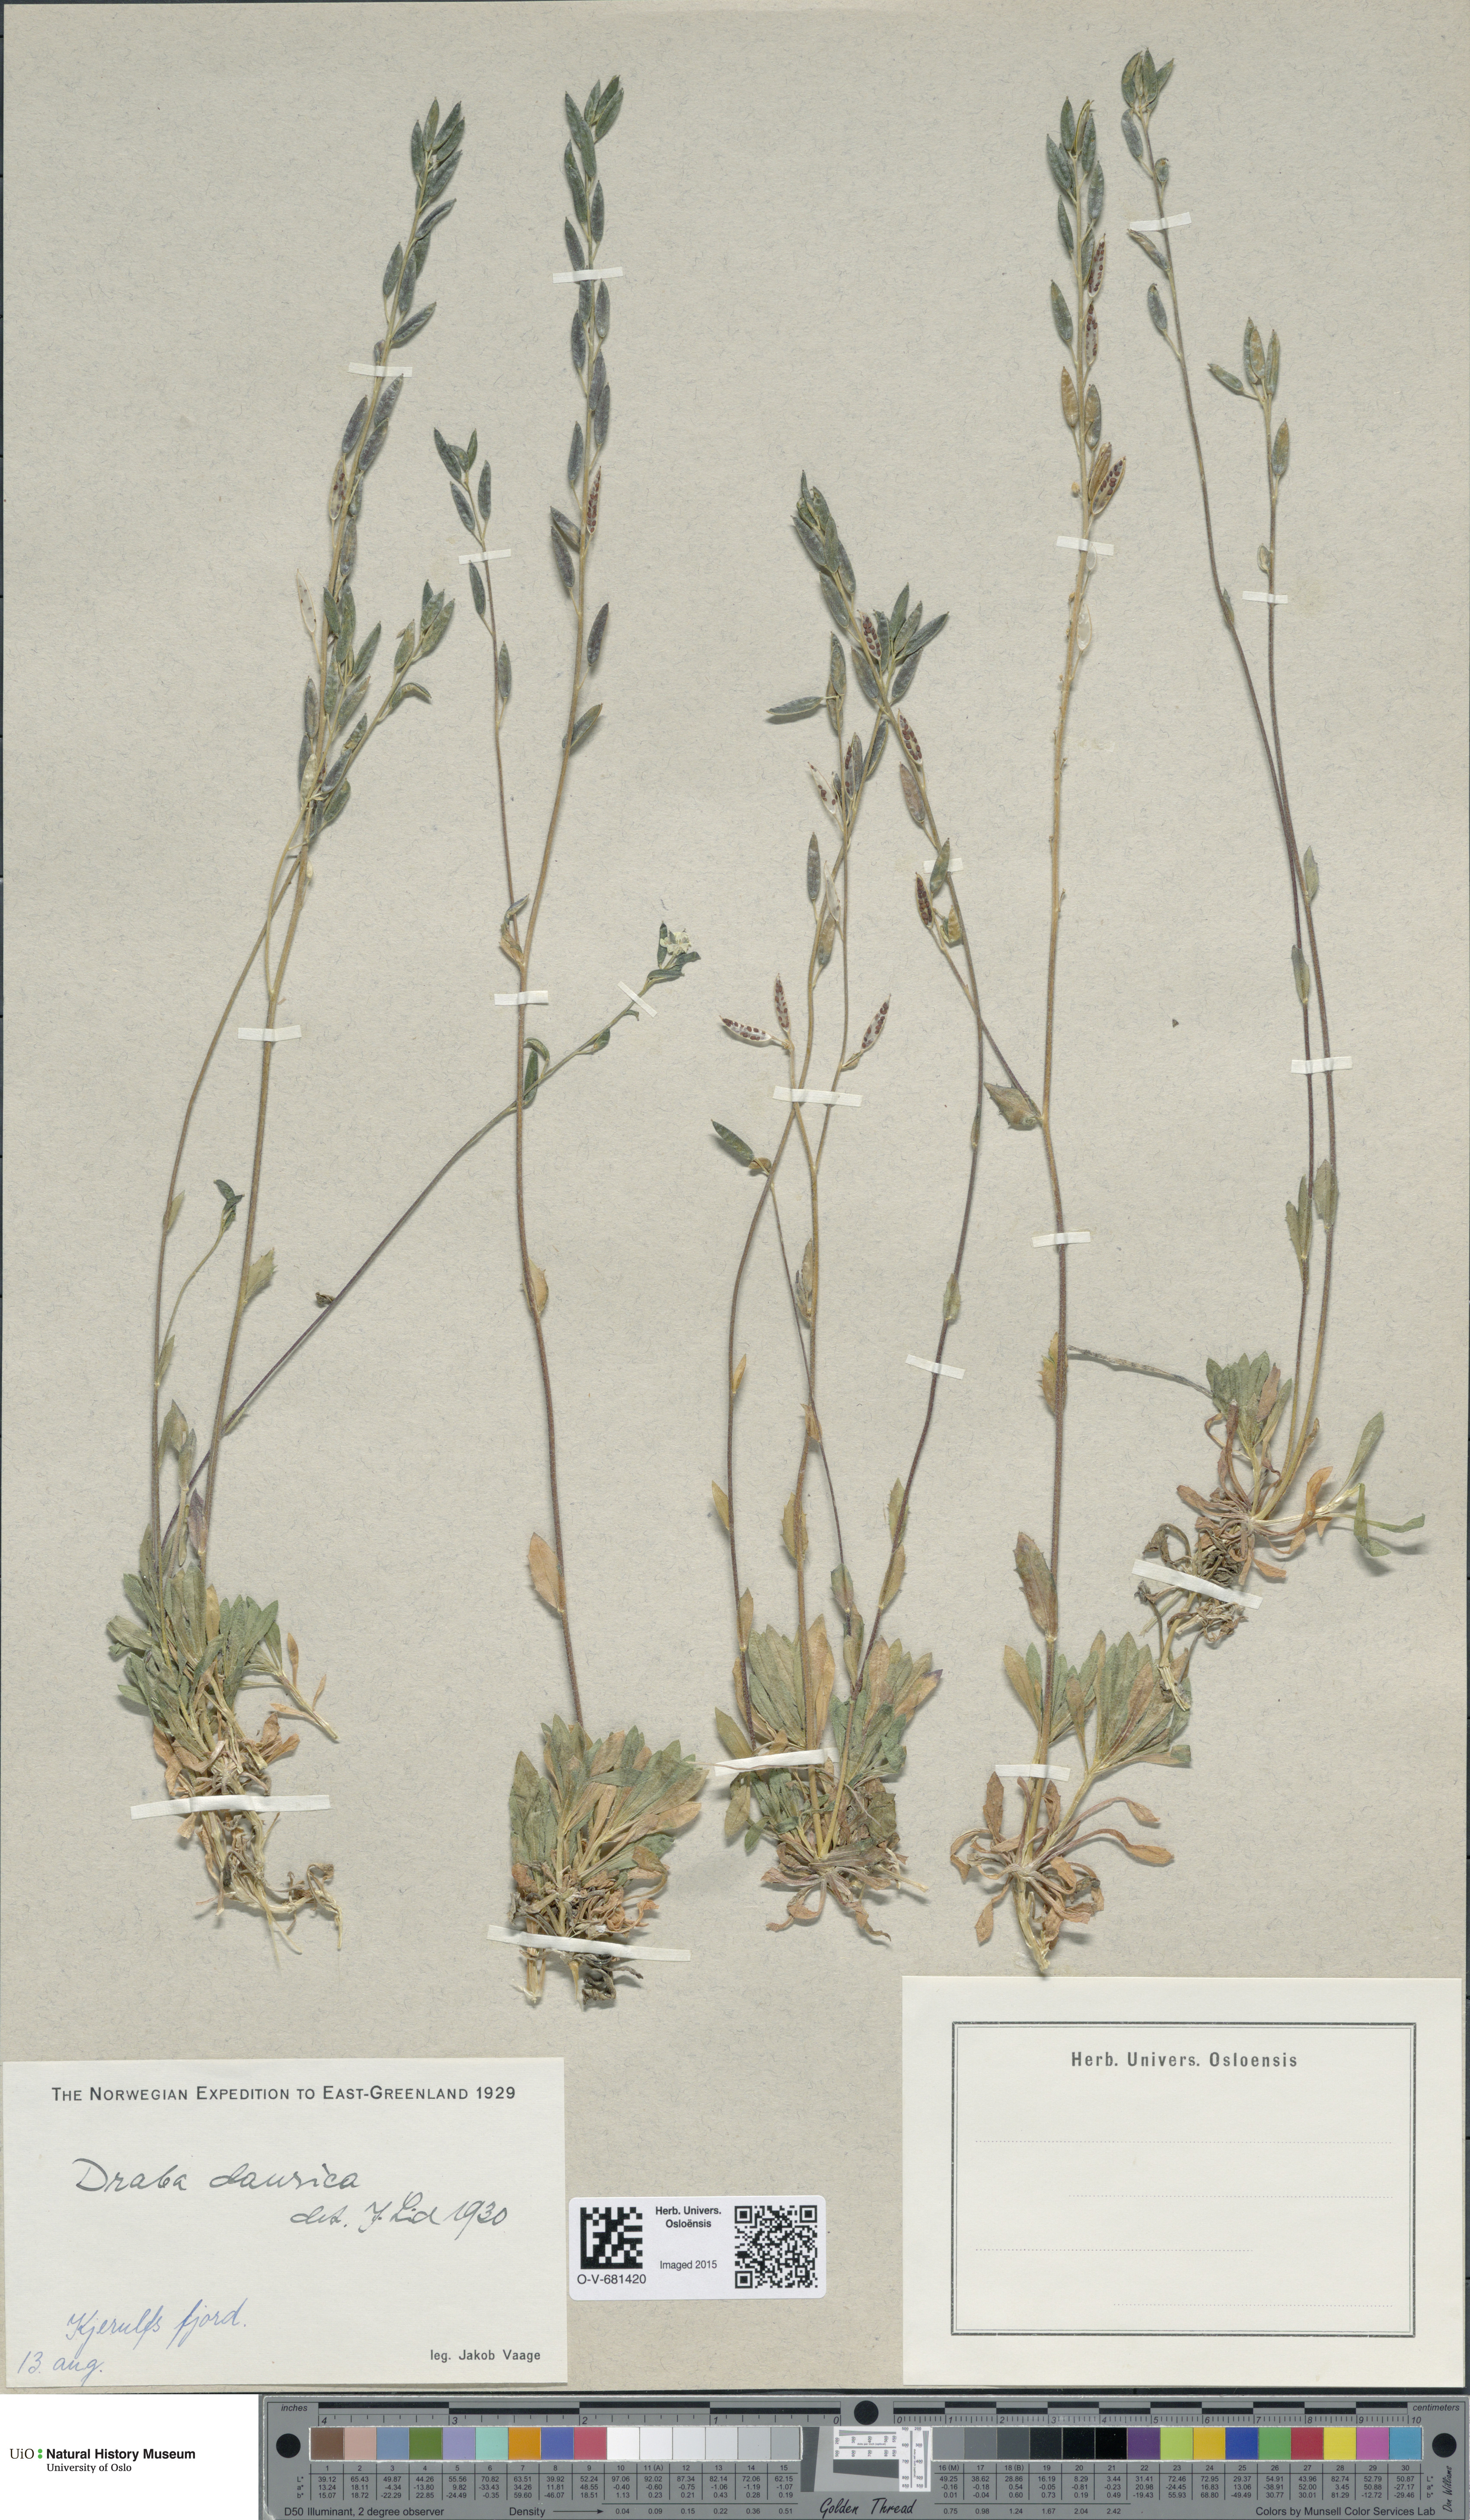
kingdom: Plantae
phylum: Tracheophyta
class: Magnoliopsida
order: Brassicales
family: Brassicaceae
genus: Draba
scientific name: Draba glabella
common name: Glaucous draba
